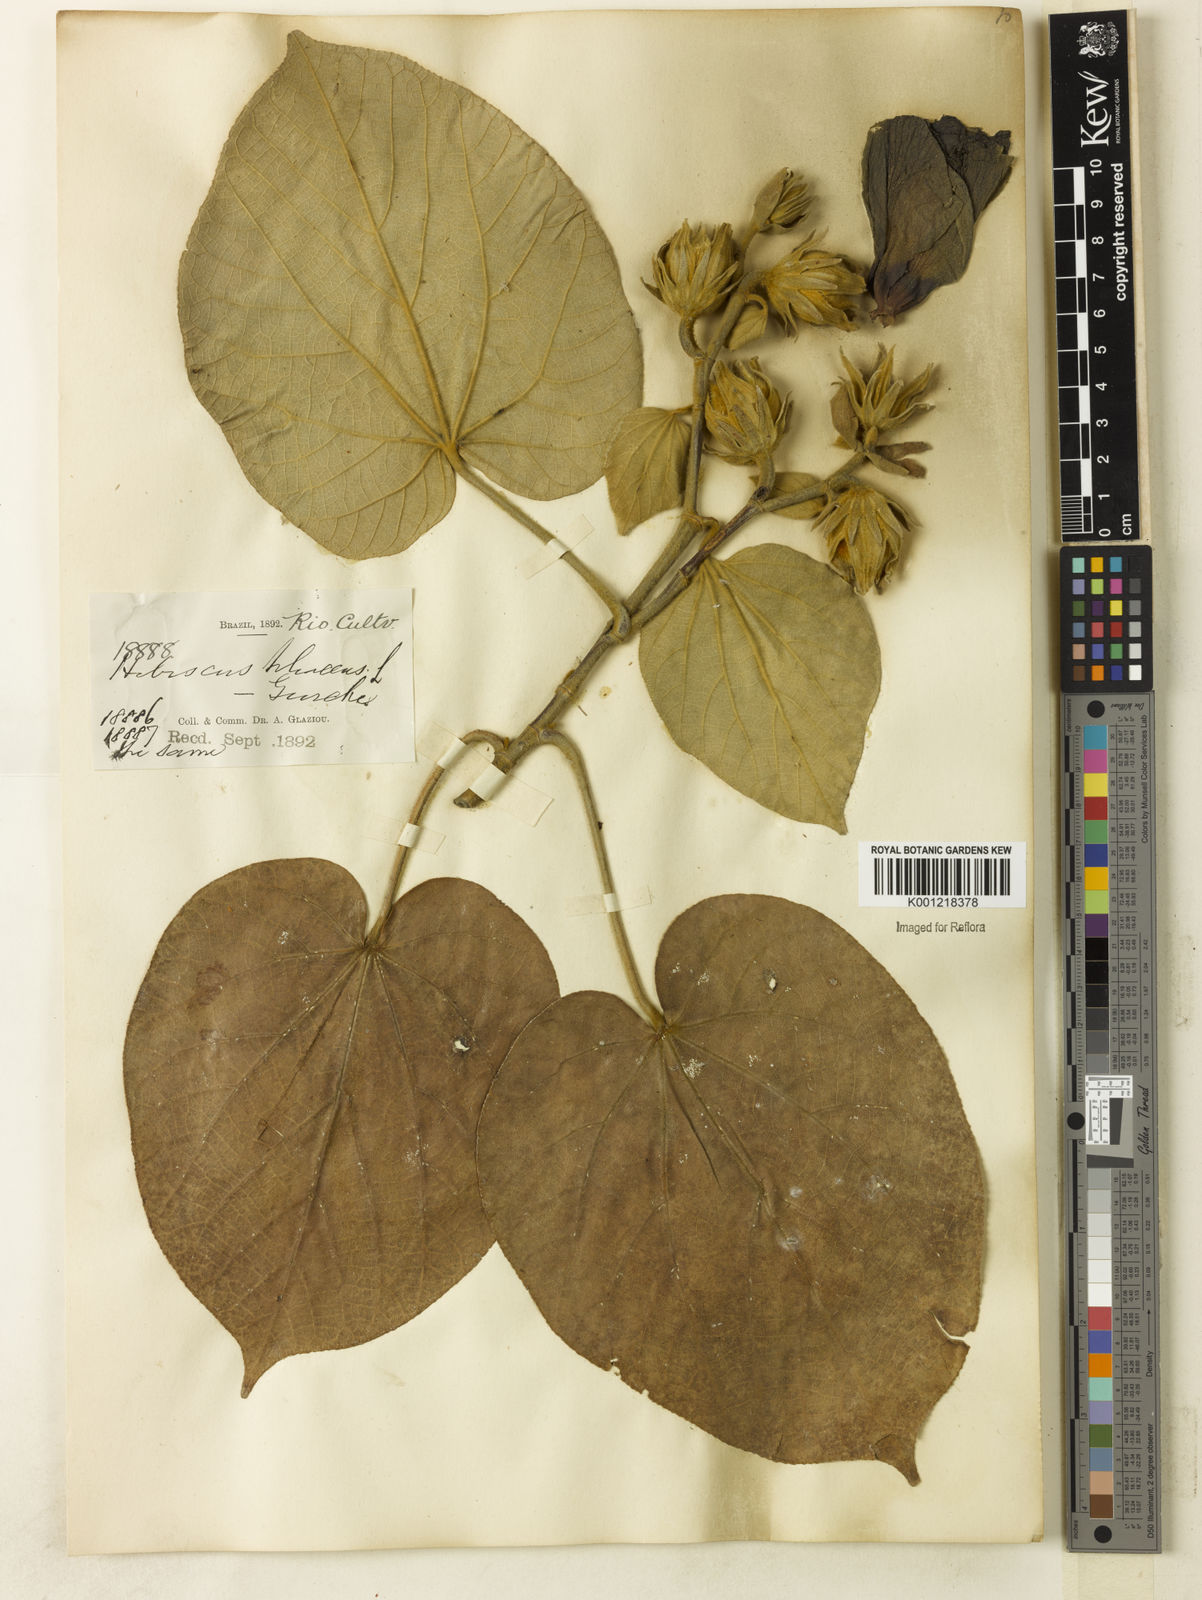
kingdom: Plantae
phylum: Tracheophyta
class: Magnoliopsida
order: Malvales
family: Malvaceae
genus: Hibiscus
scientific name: Hibiscus
